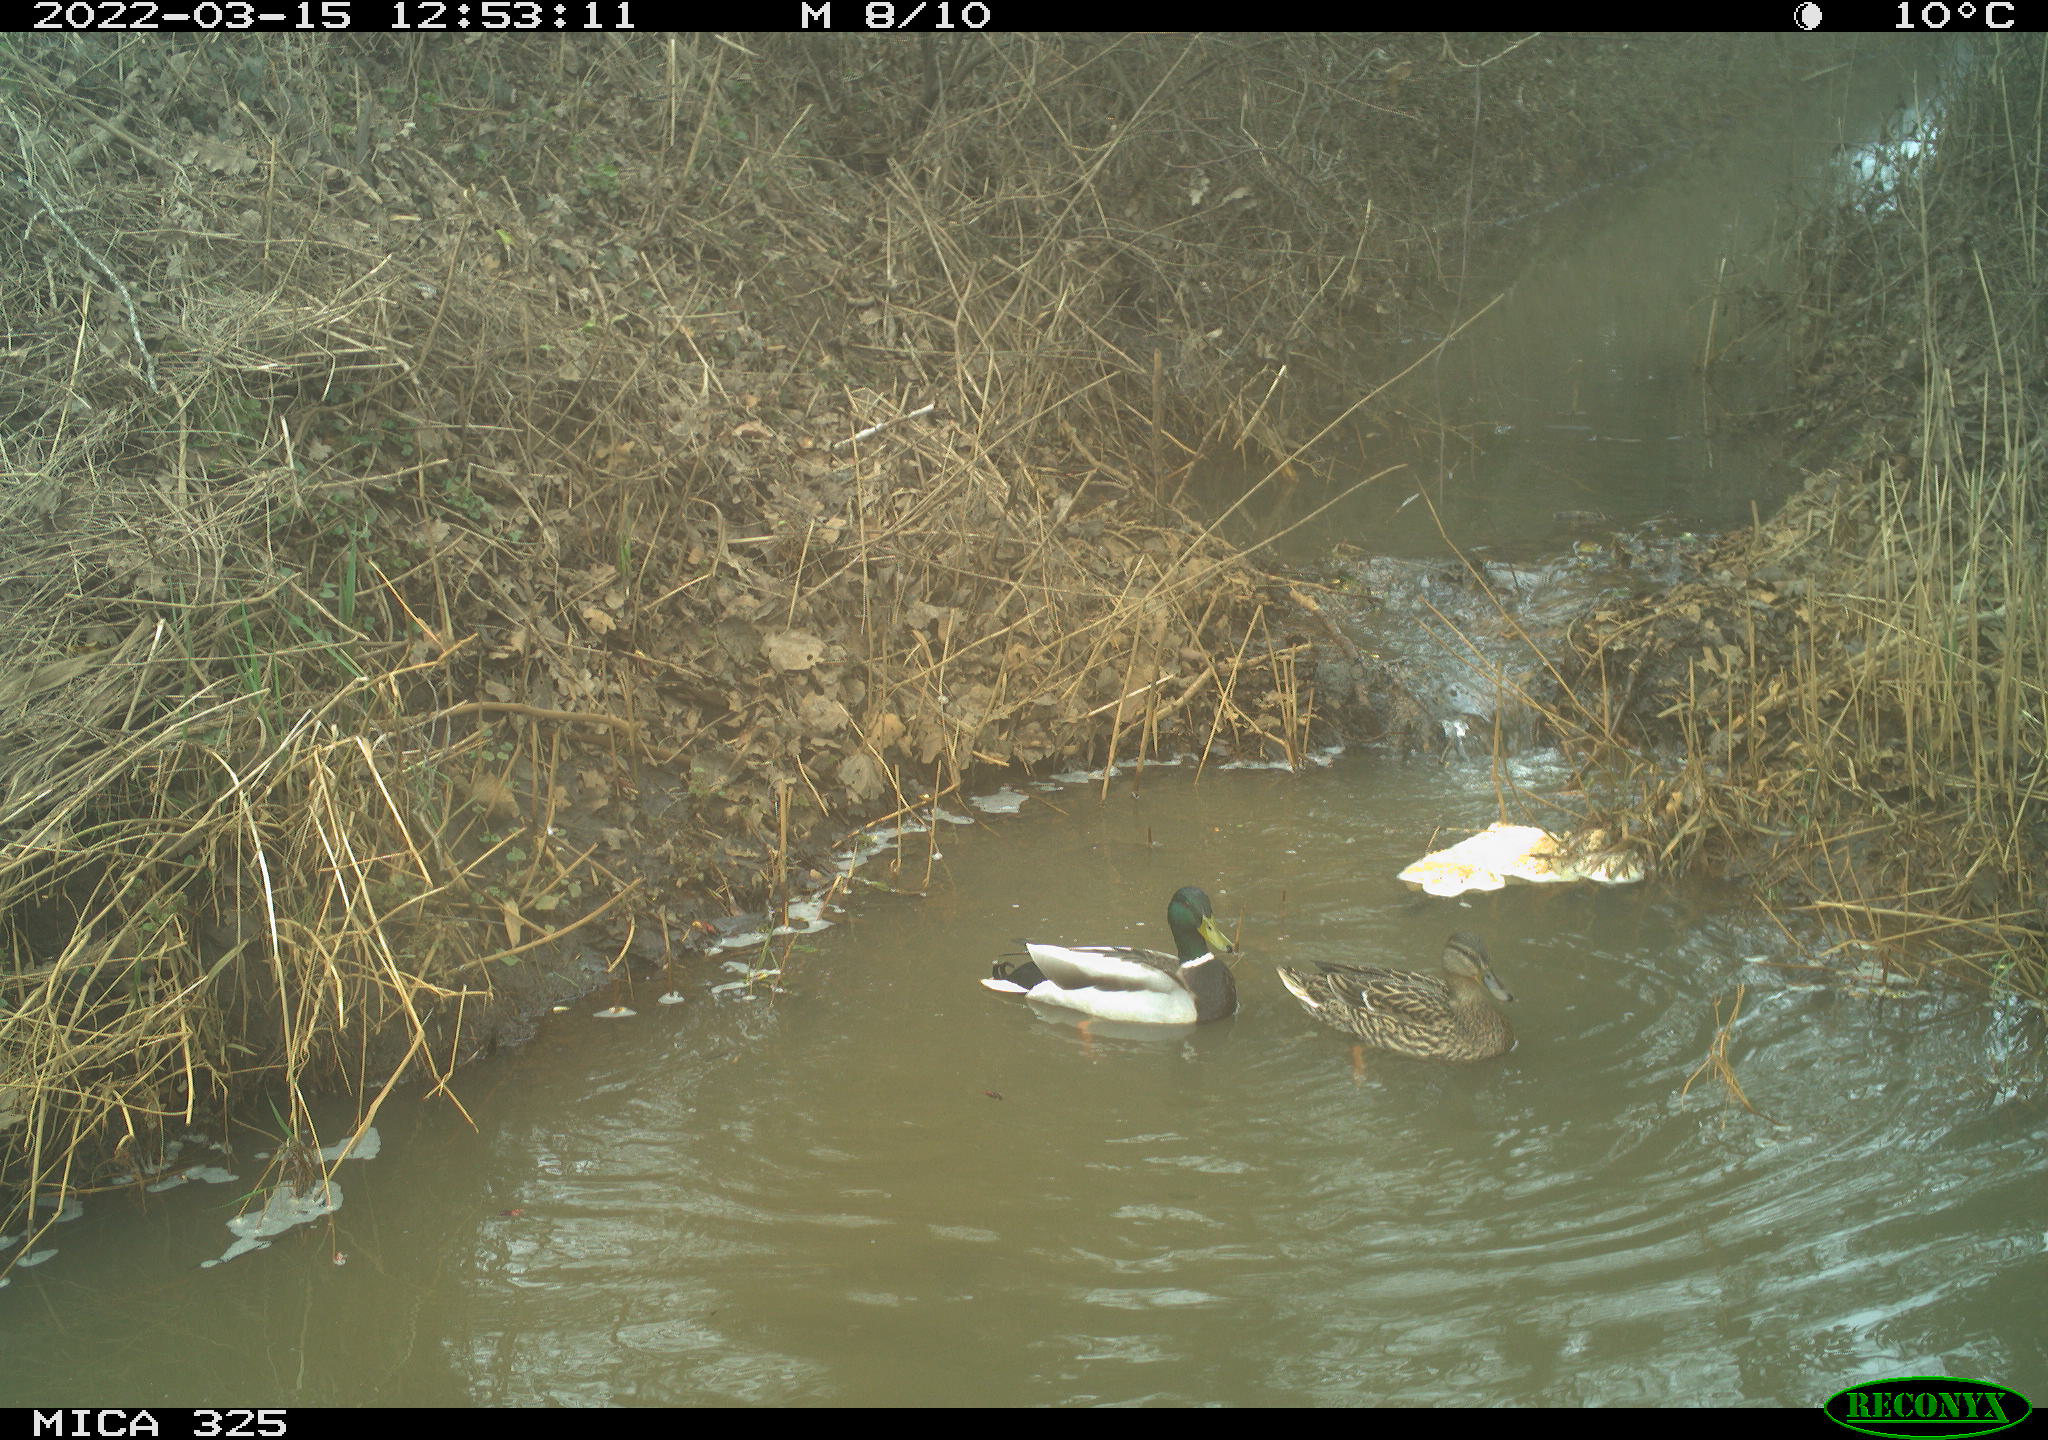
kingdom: Animalia
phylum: Chordata
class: Aves
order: Anseriformes
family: Anatidae
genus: Anas
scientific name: Anas platyrhynchos
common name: Mallard
